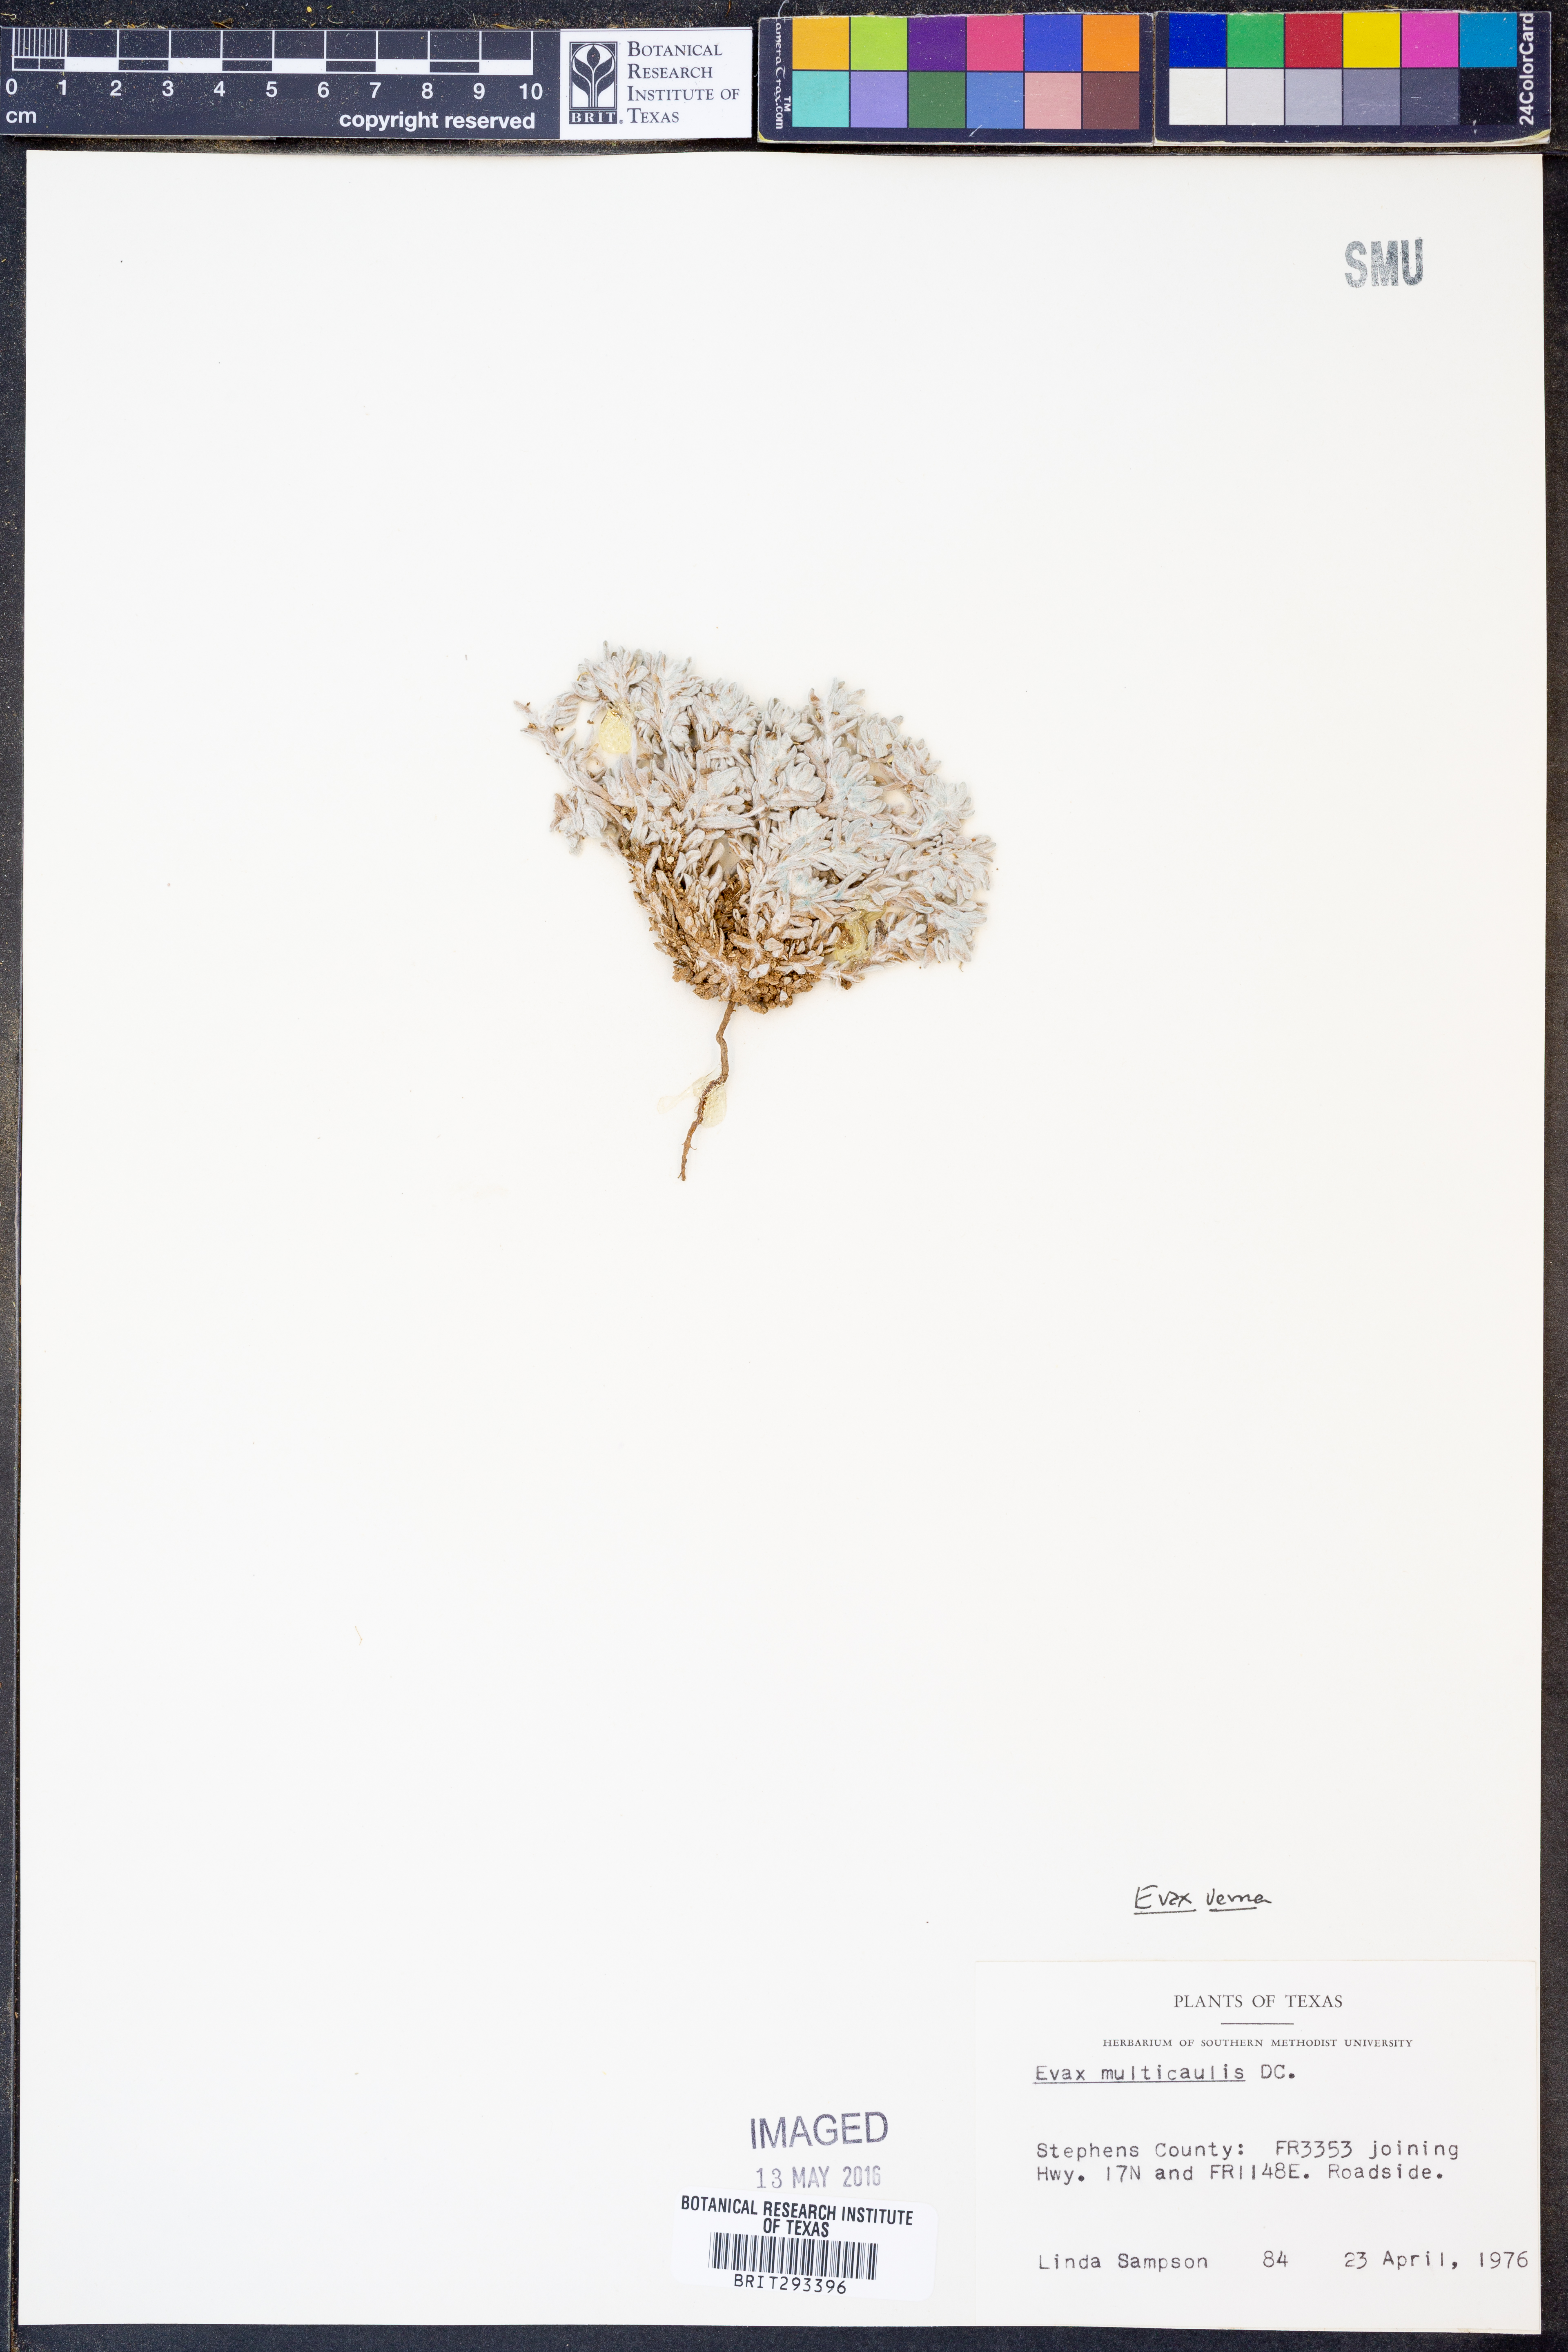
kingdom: Plantae
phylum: Tracheophyta
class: Magnoliopsida
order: Asterales
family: Asteraceae
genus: Diaperia
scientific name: Diaperia verna
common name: Many-stem rabbit-tobacco
